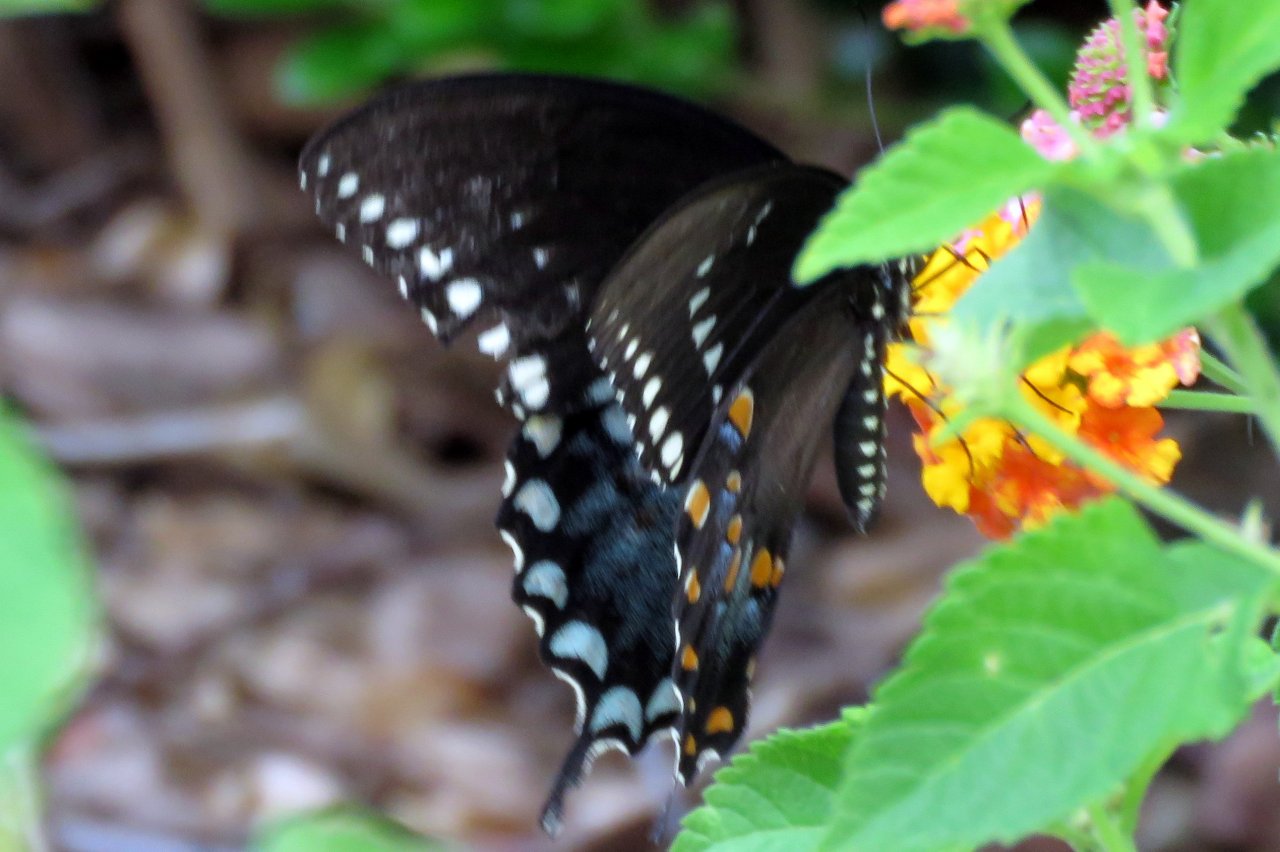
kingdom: Animalia
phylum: Arthropoda
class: Insecta
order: Lepidoptera
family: Papilionidae
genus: Pterourus
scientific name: Pterourus troilus
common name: Spicebush Swallowtail
